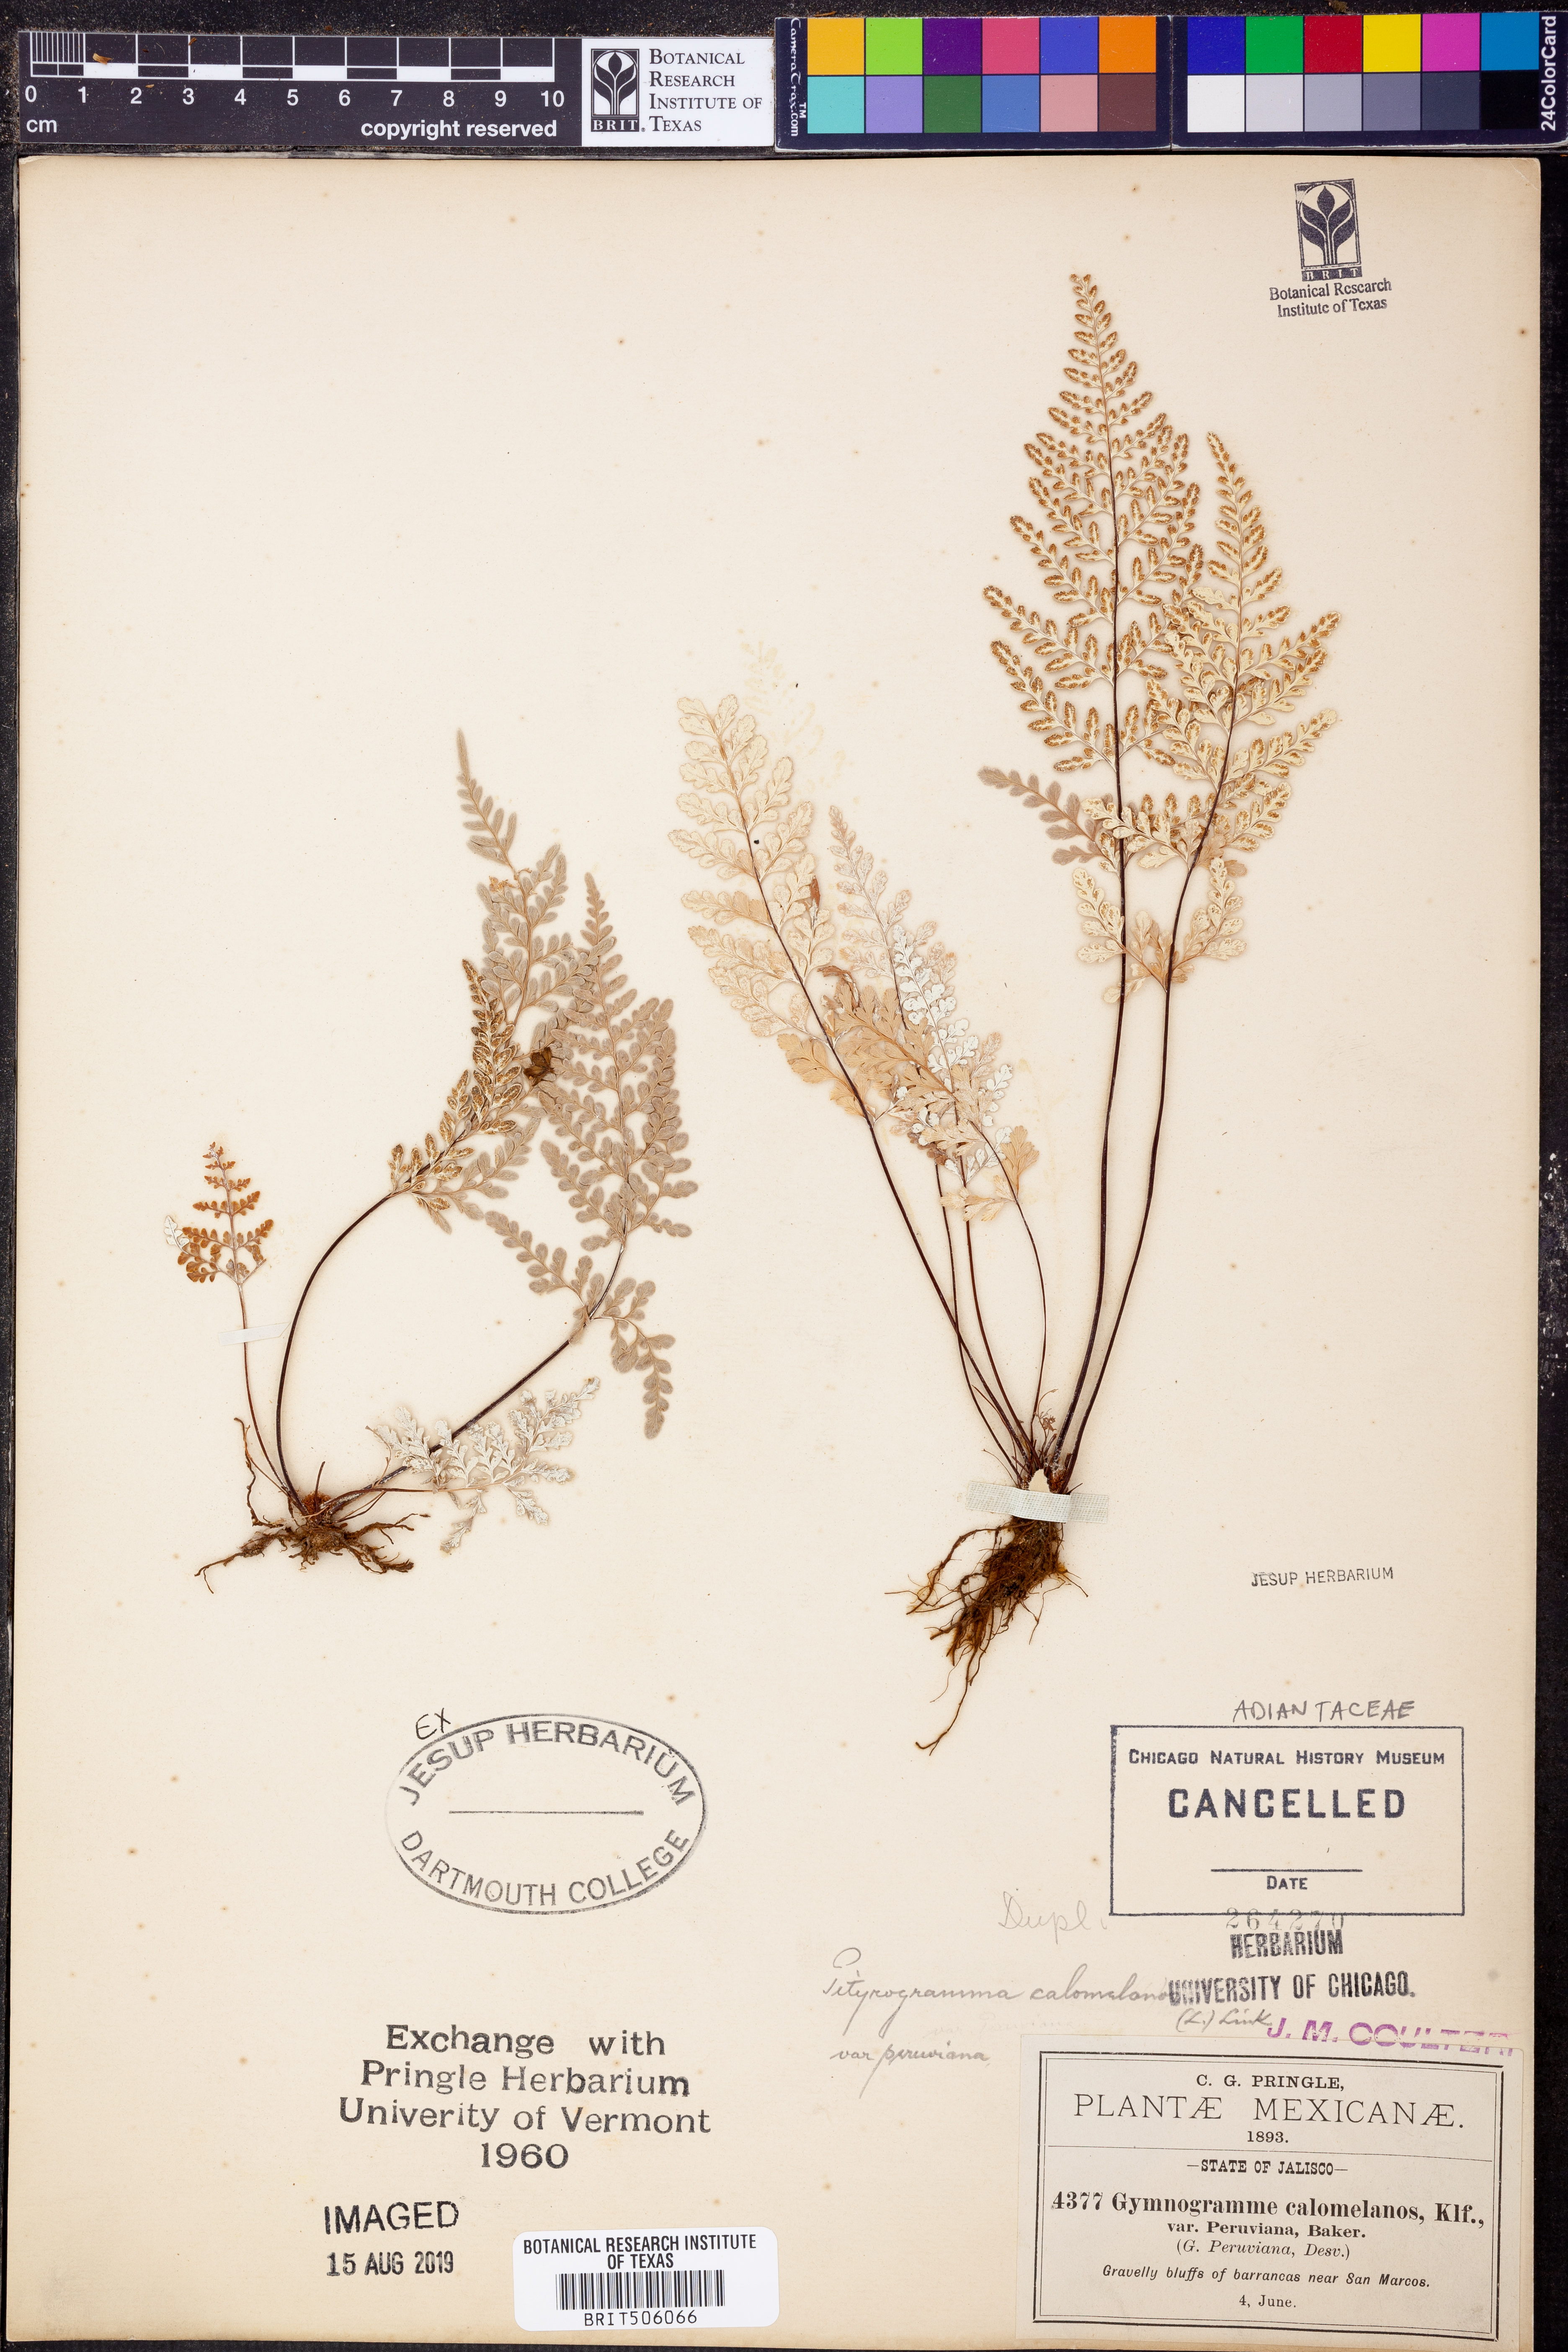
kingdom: Plantae
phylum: Tracheophyta
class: Polypodiopsida
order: Polypodiales
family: Pteridaceae
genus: Pityrogramma
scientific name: Pityrogramma calomelanos
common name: Dixie silverback fern
